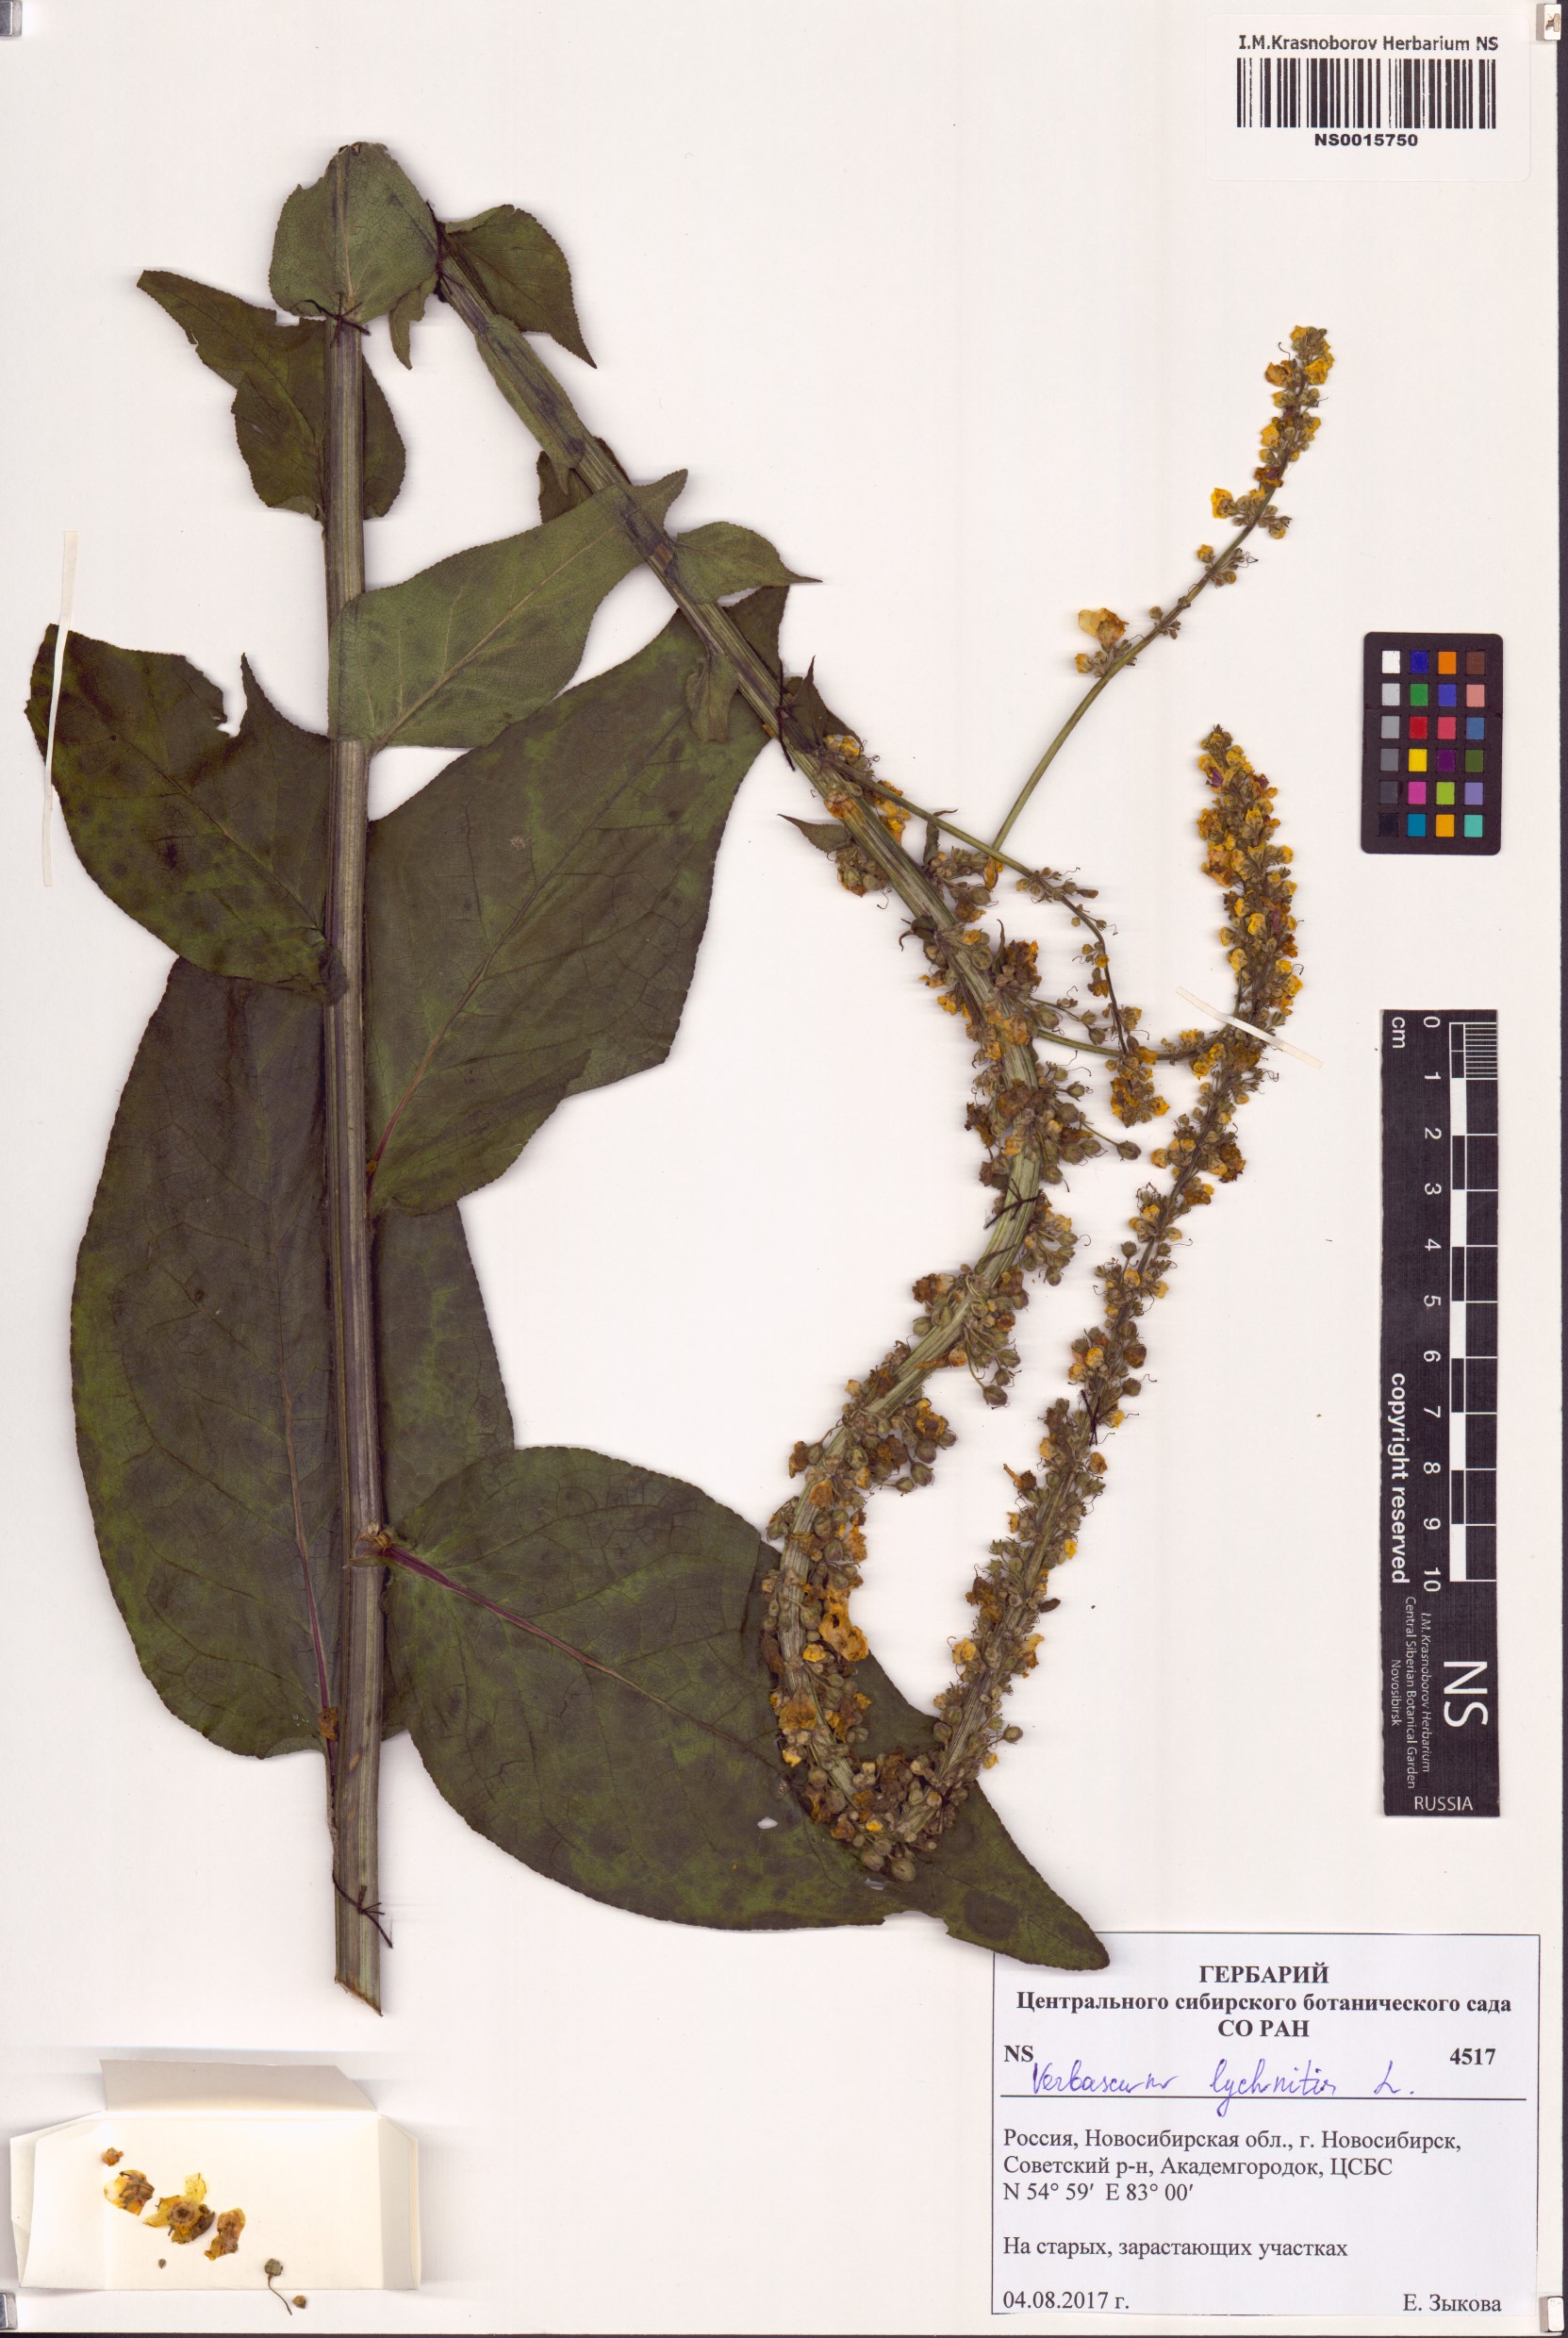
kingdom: Plantae
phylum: Tracheophyta
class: Magnoliopsida
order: Lamiales
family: Scrophulariaceae
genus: Verbascum
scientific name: Verbascum lychnitis
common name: White mullein
